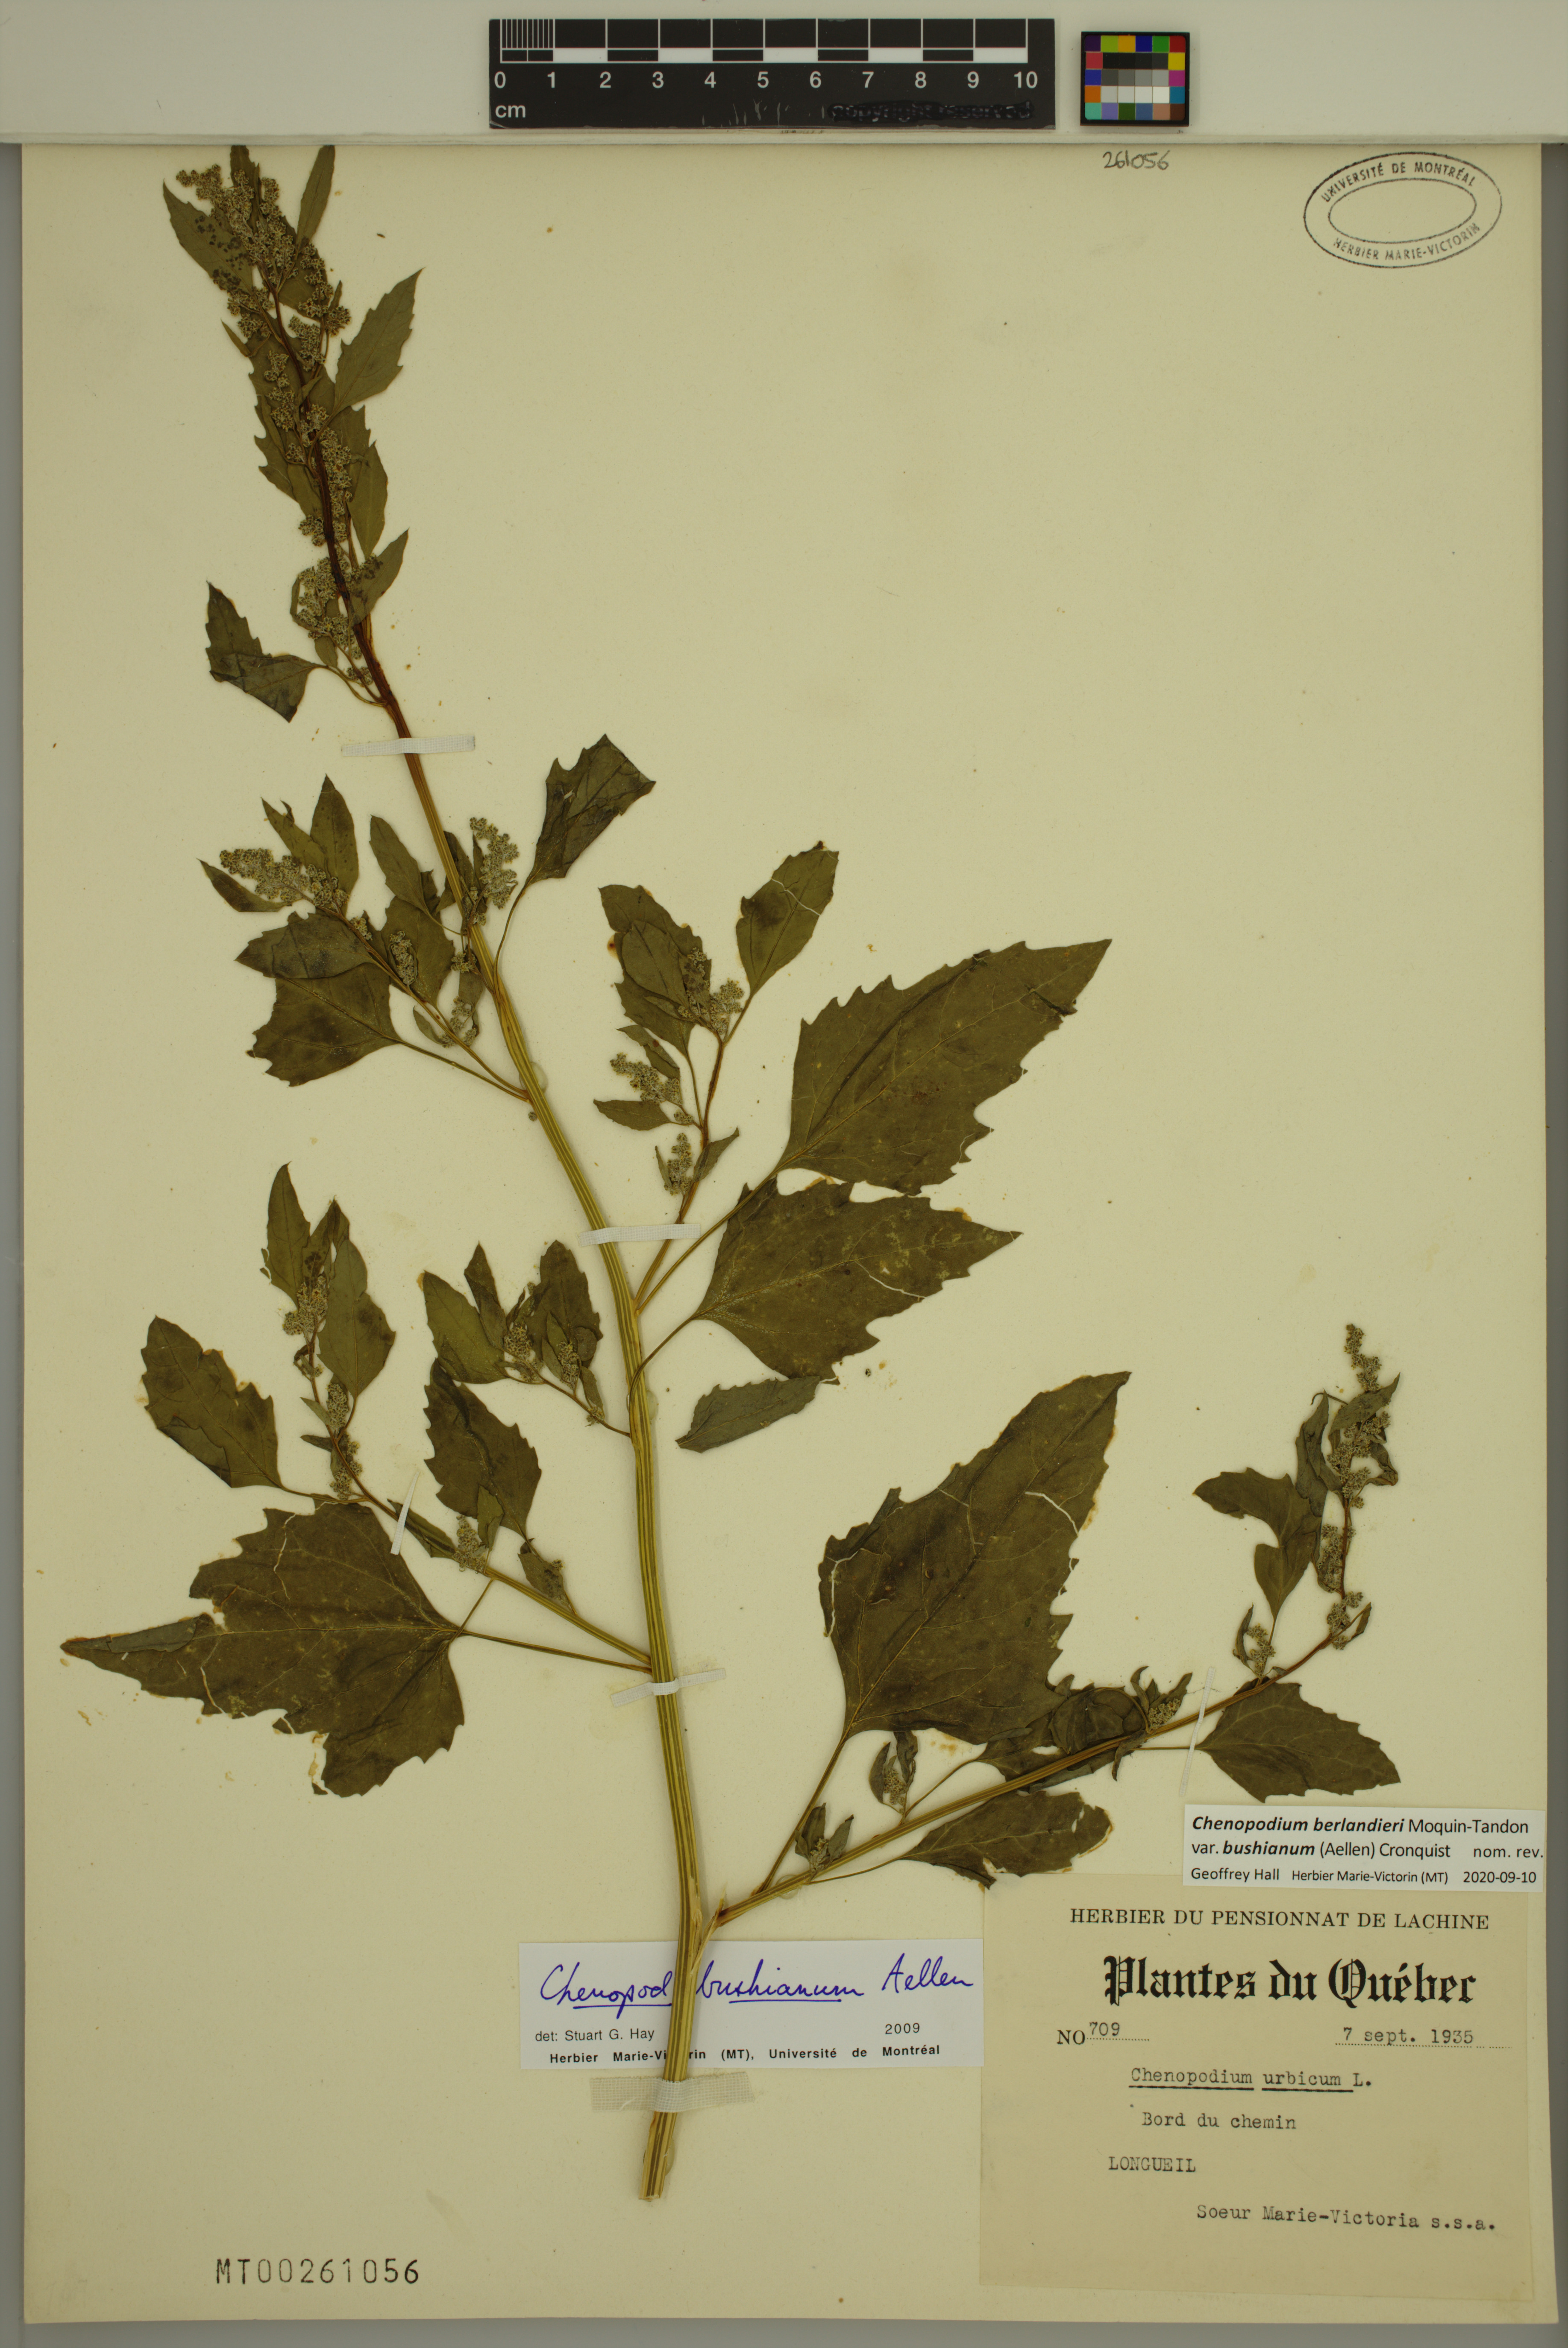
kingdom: Plantae
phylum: Tracheophyta
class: Magnoliopsida
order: Caryophyllales
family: Amaranthaceae
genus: Chenopodium
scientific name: Chenopodium berlandieri
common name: Pit-seed goosefoot
